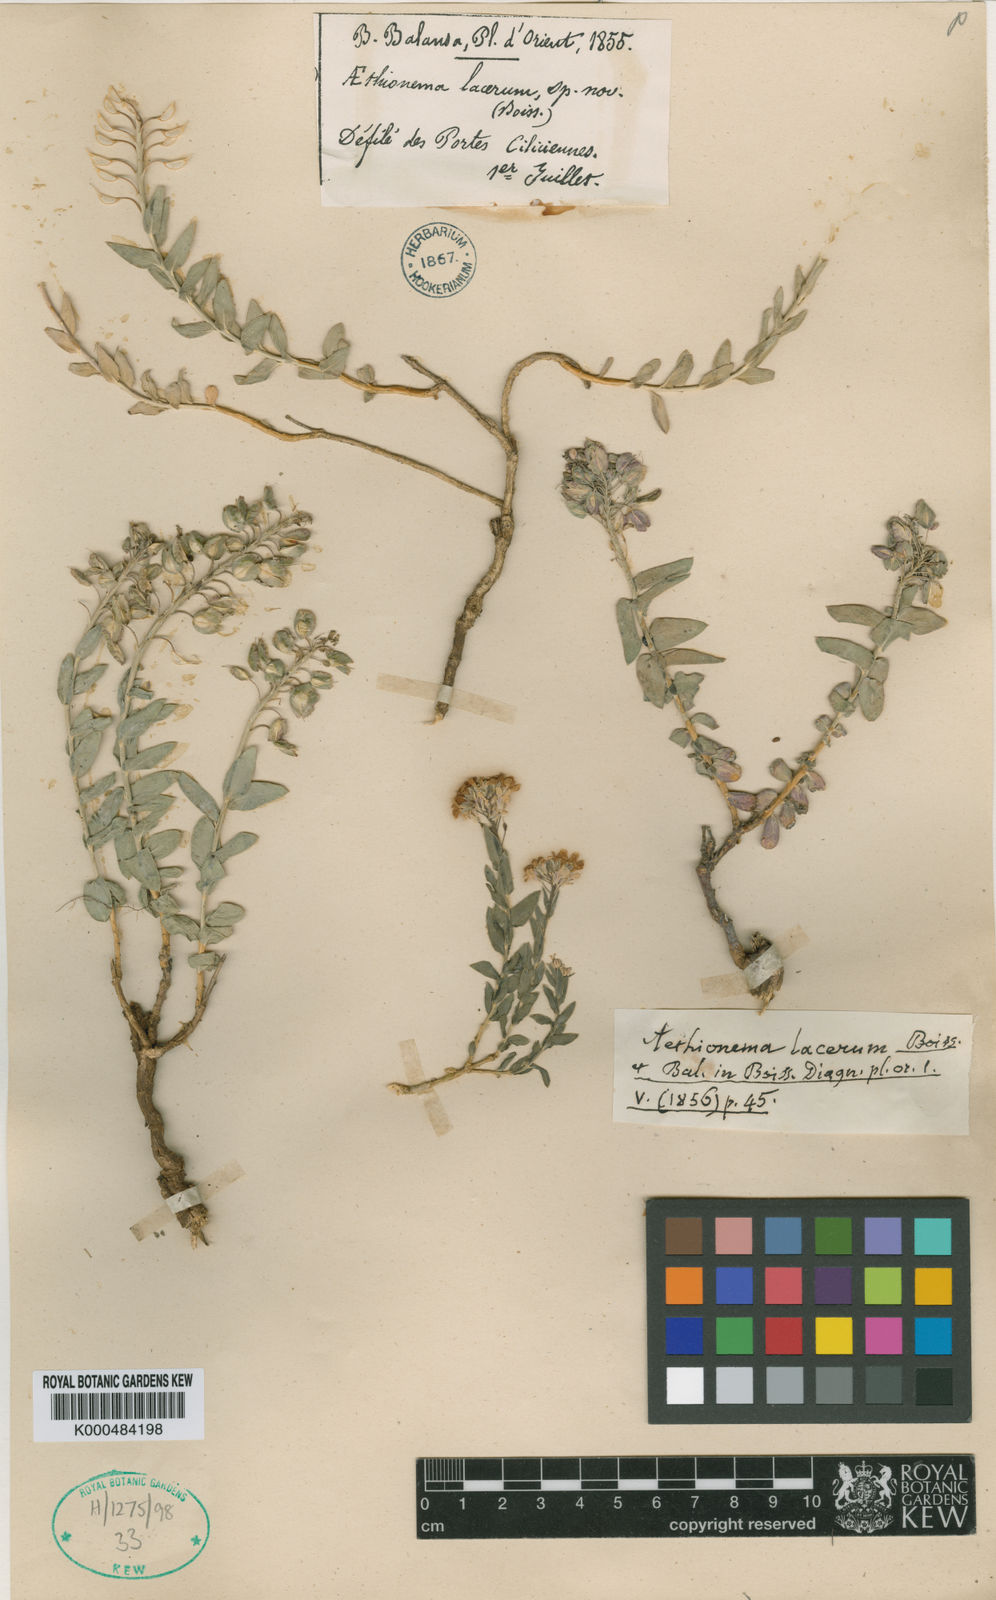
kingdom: Plantae
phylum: Tracheophyta
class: Magnoliopsida
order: Brassicales
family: Brassicaceae
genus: Aethionema
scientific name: Aethionema stylosum
